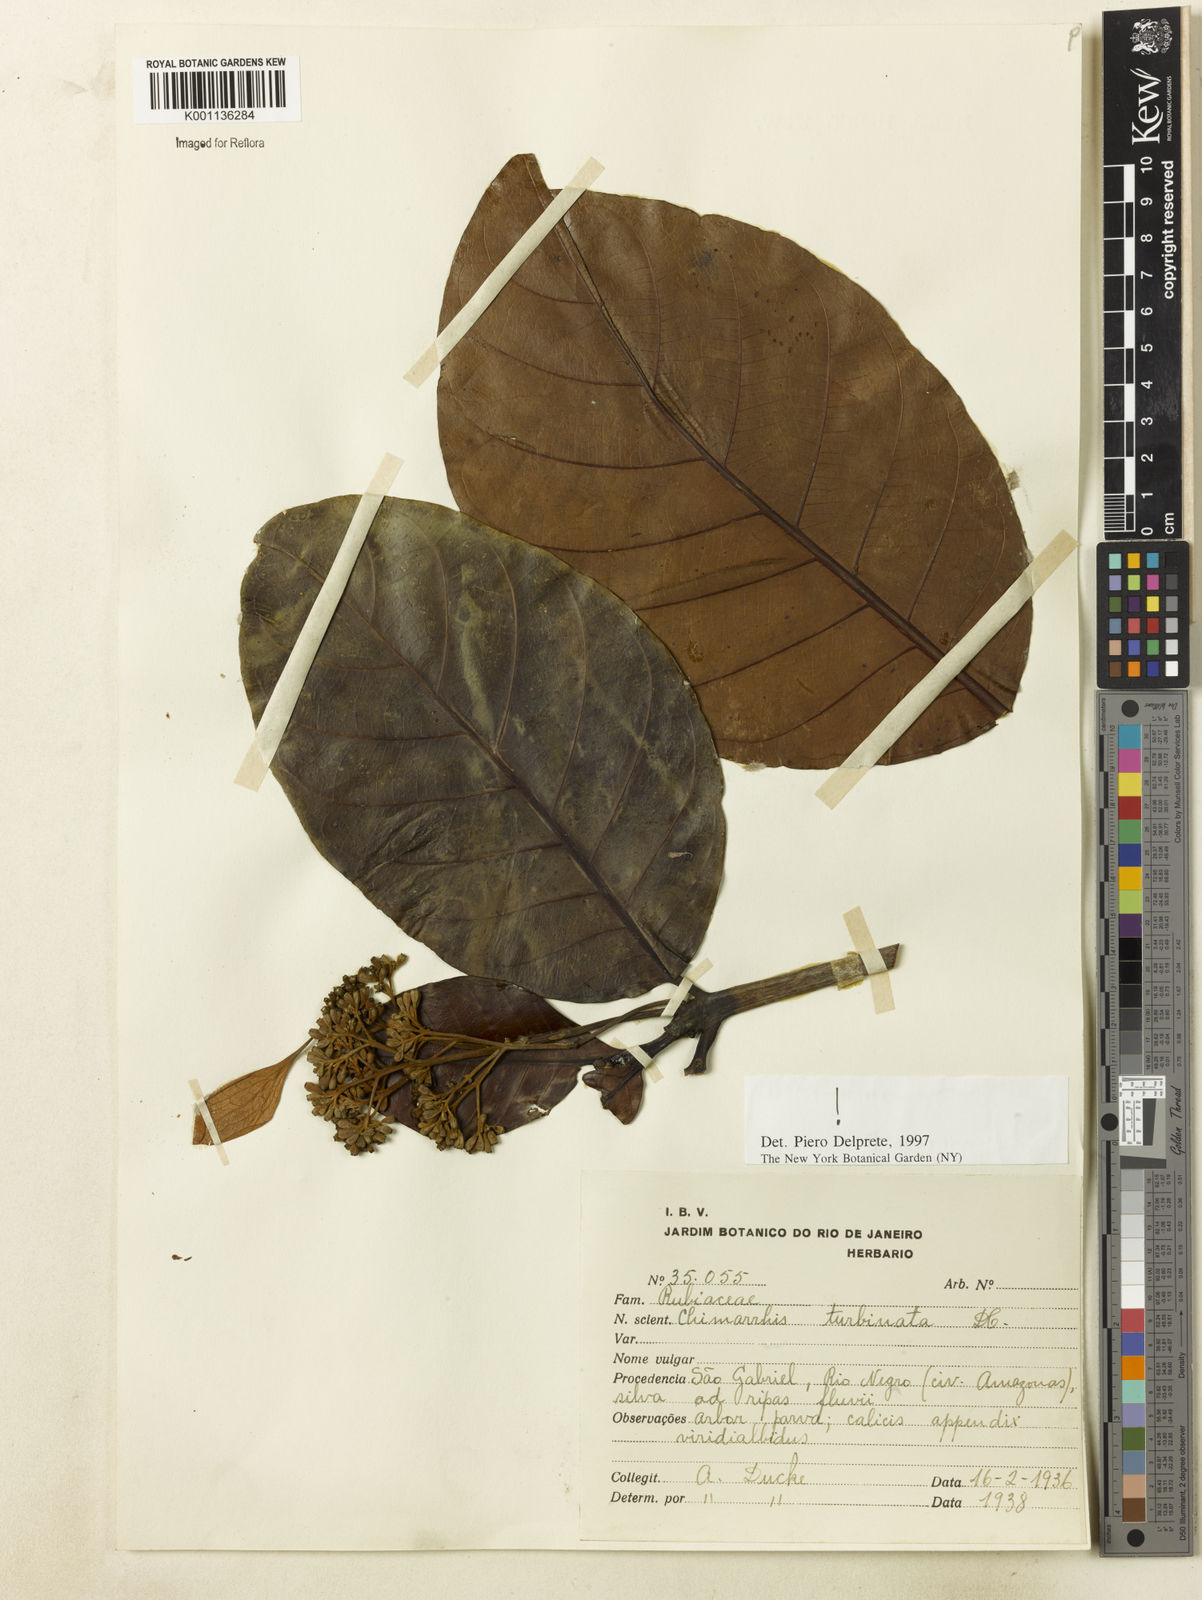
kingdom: Plantae
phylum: Tracheophyta
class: Magnoliopsida
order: Gentianales
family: Rubiaceae
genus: Chimarrhis
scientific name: Chimarrhis turbinata
